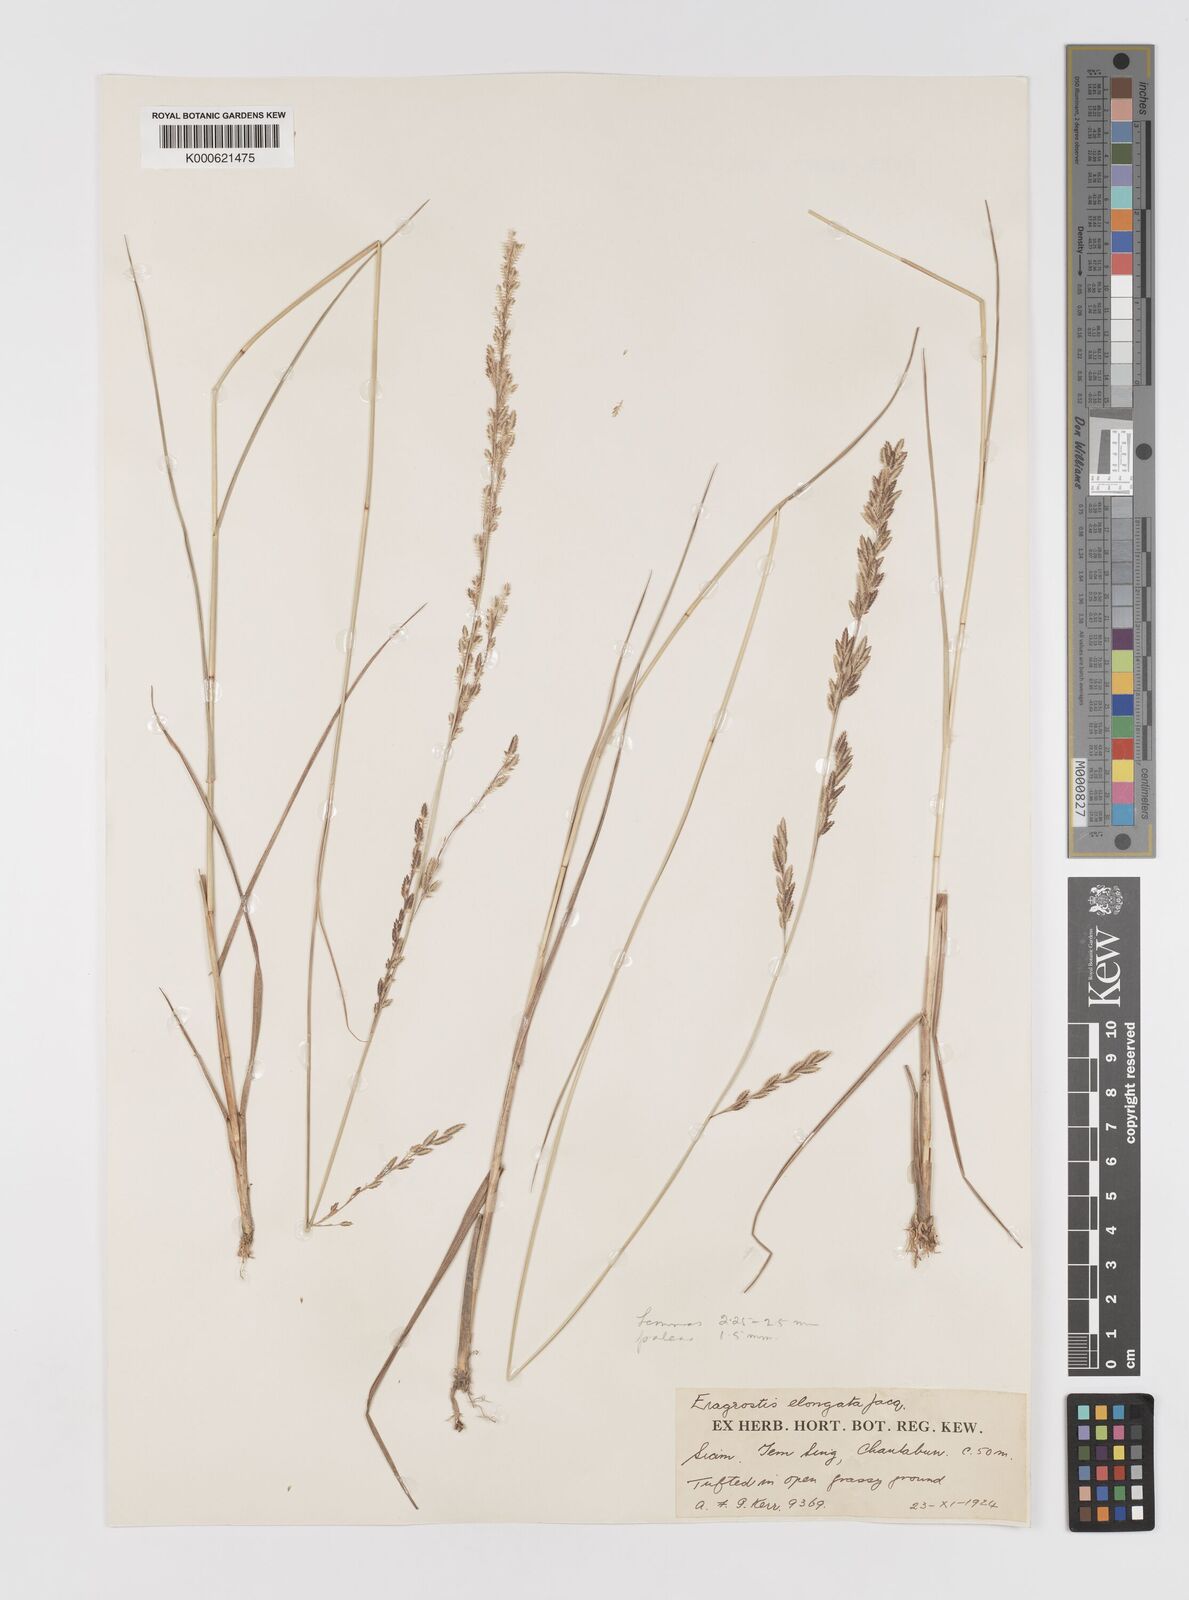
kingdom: Plantae
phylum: Tracheophyta
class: Liliopsida
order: Poales
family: Poaceae
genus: Eragrostis
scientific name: Eragrostis brownii
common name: Lovegrass
